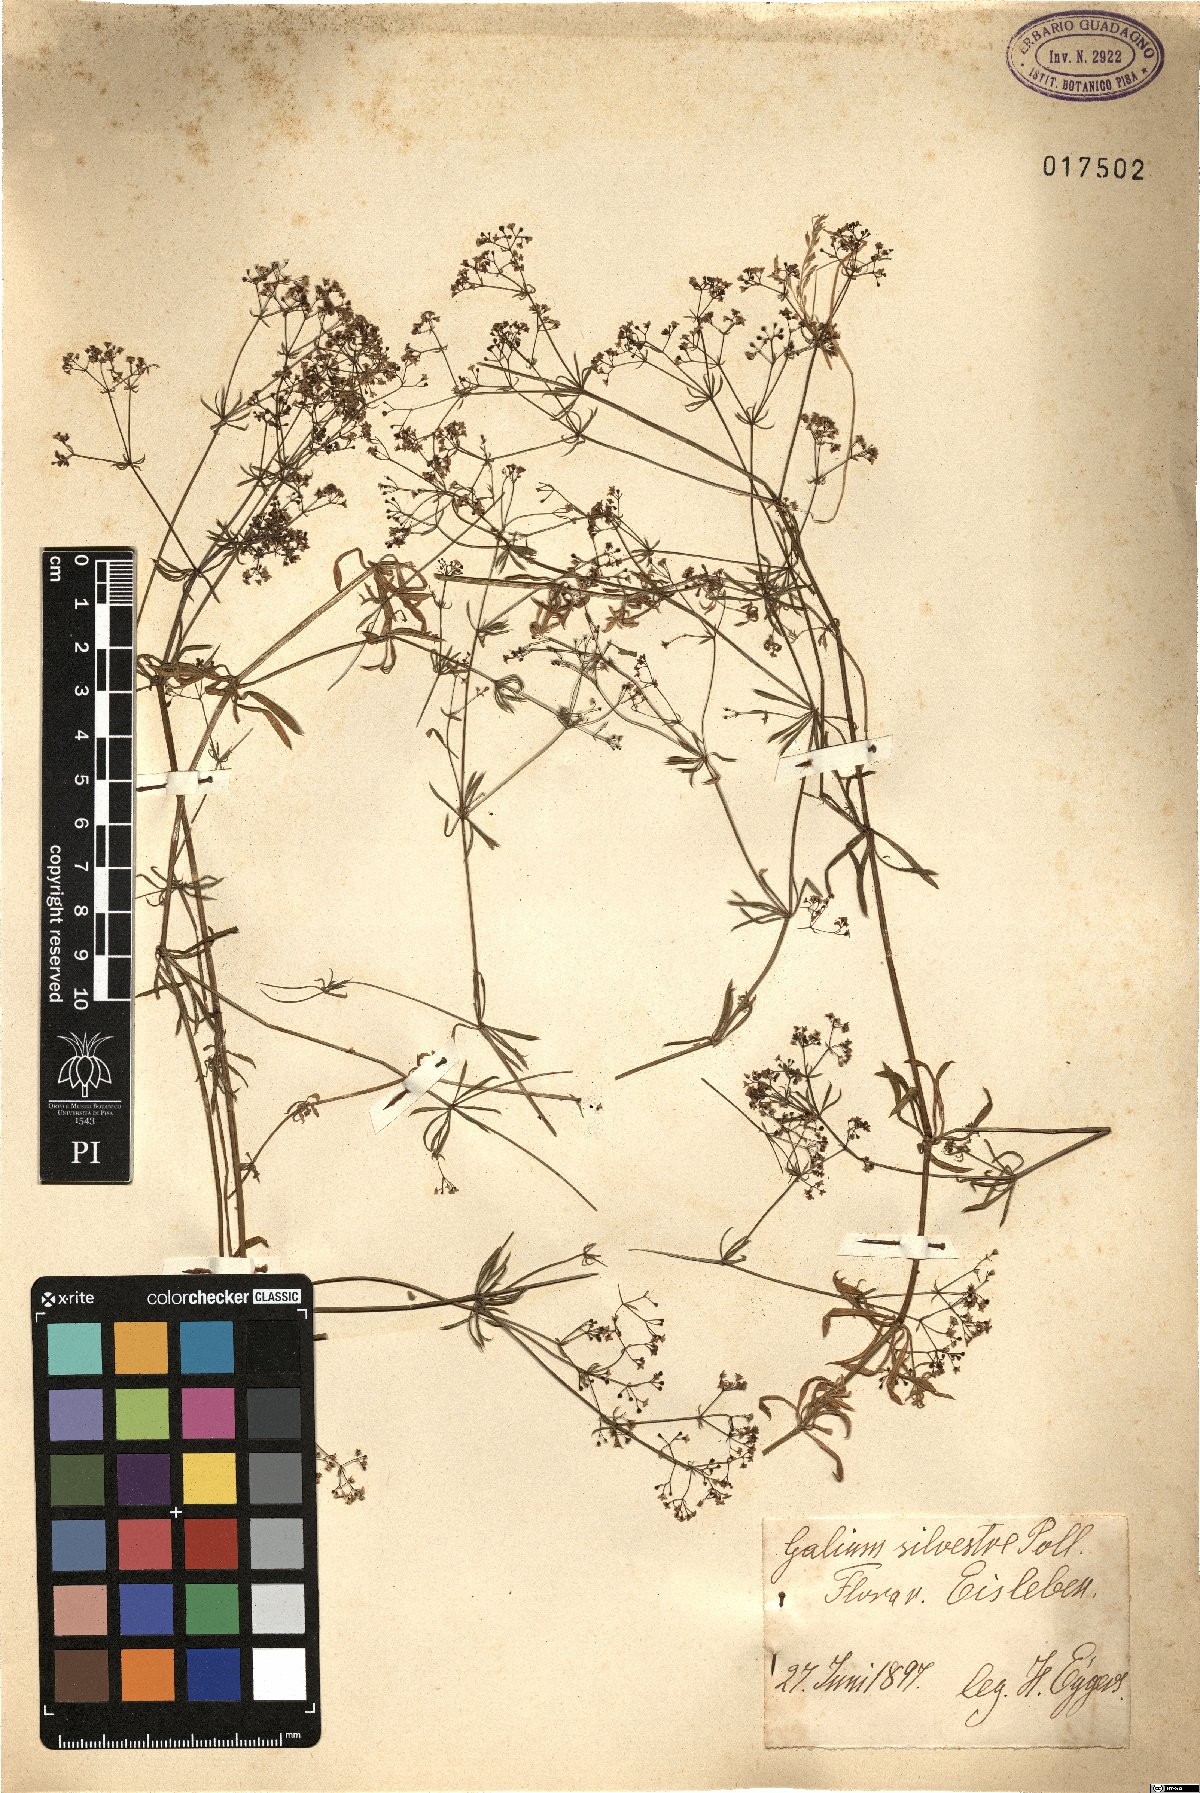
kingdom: Plantae
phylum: Tracheophyta
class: Magnoliopsida
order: Gentianales
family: Rubiaceae
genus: Galium
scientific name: Galium pumilum
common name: Slender bedstraw
